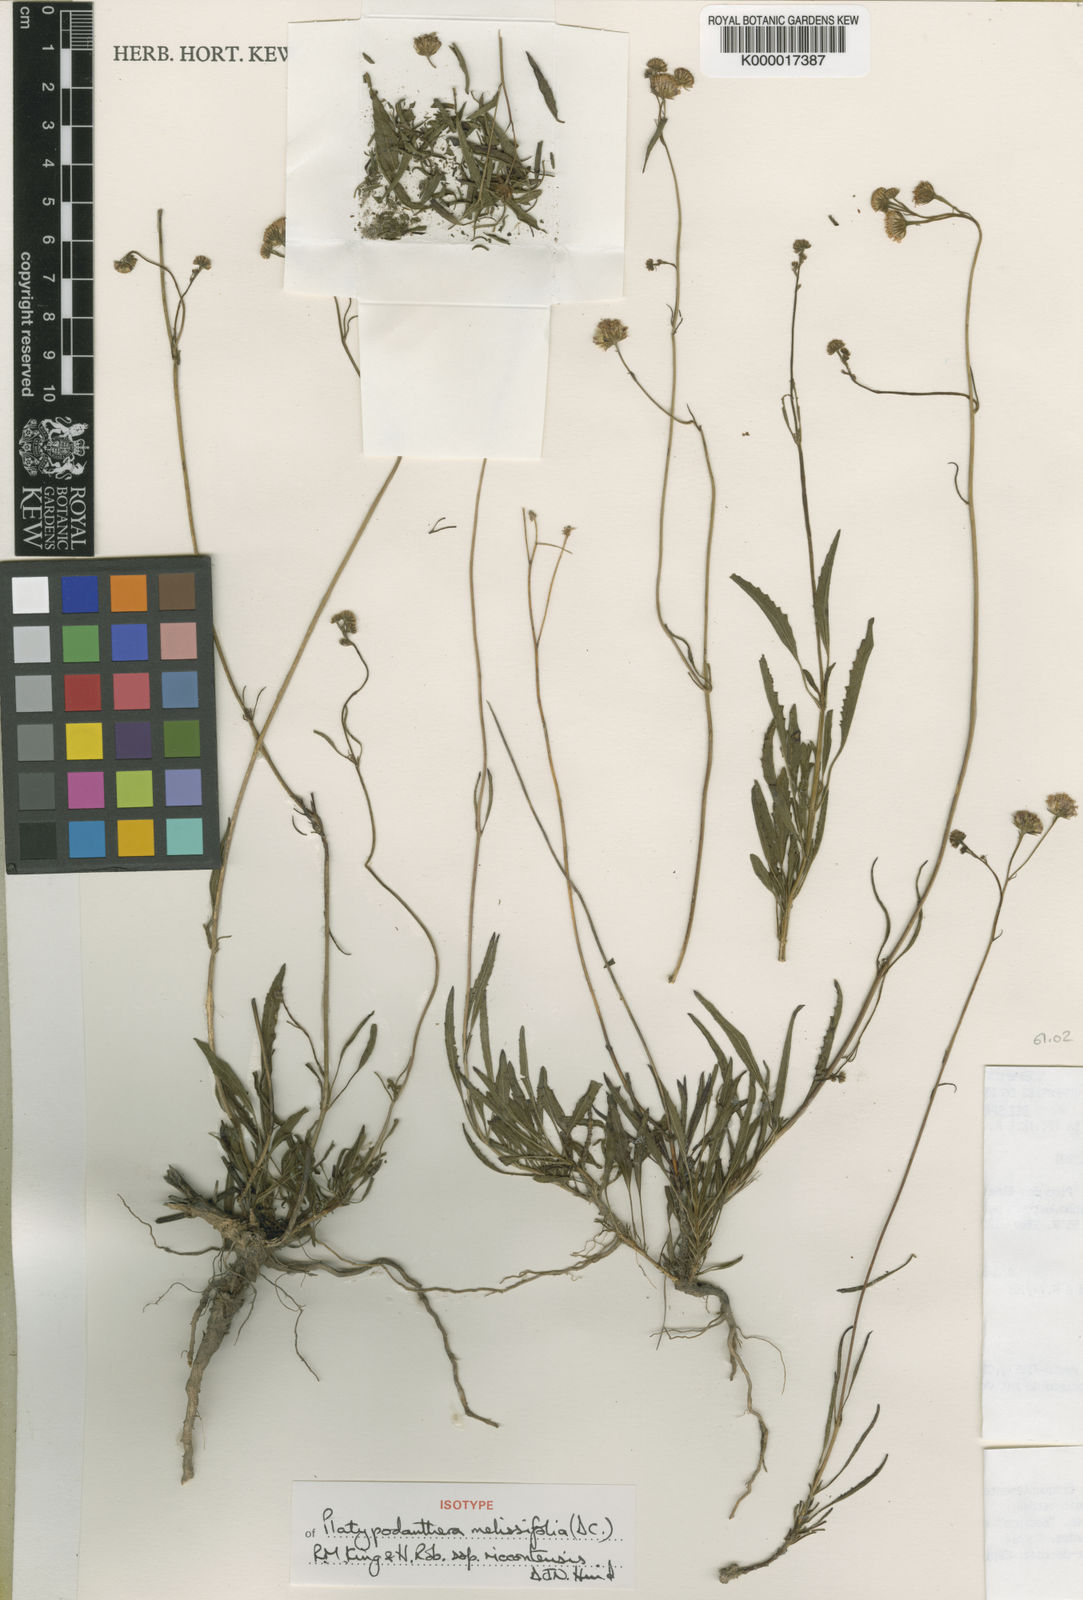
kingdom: Plantae
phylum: Tracheophyta
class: Magnoliopsida
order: Asterales
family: Asteraceae
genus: Platypodanthera
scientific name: Platypodanthera melissifolia
